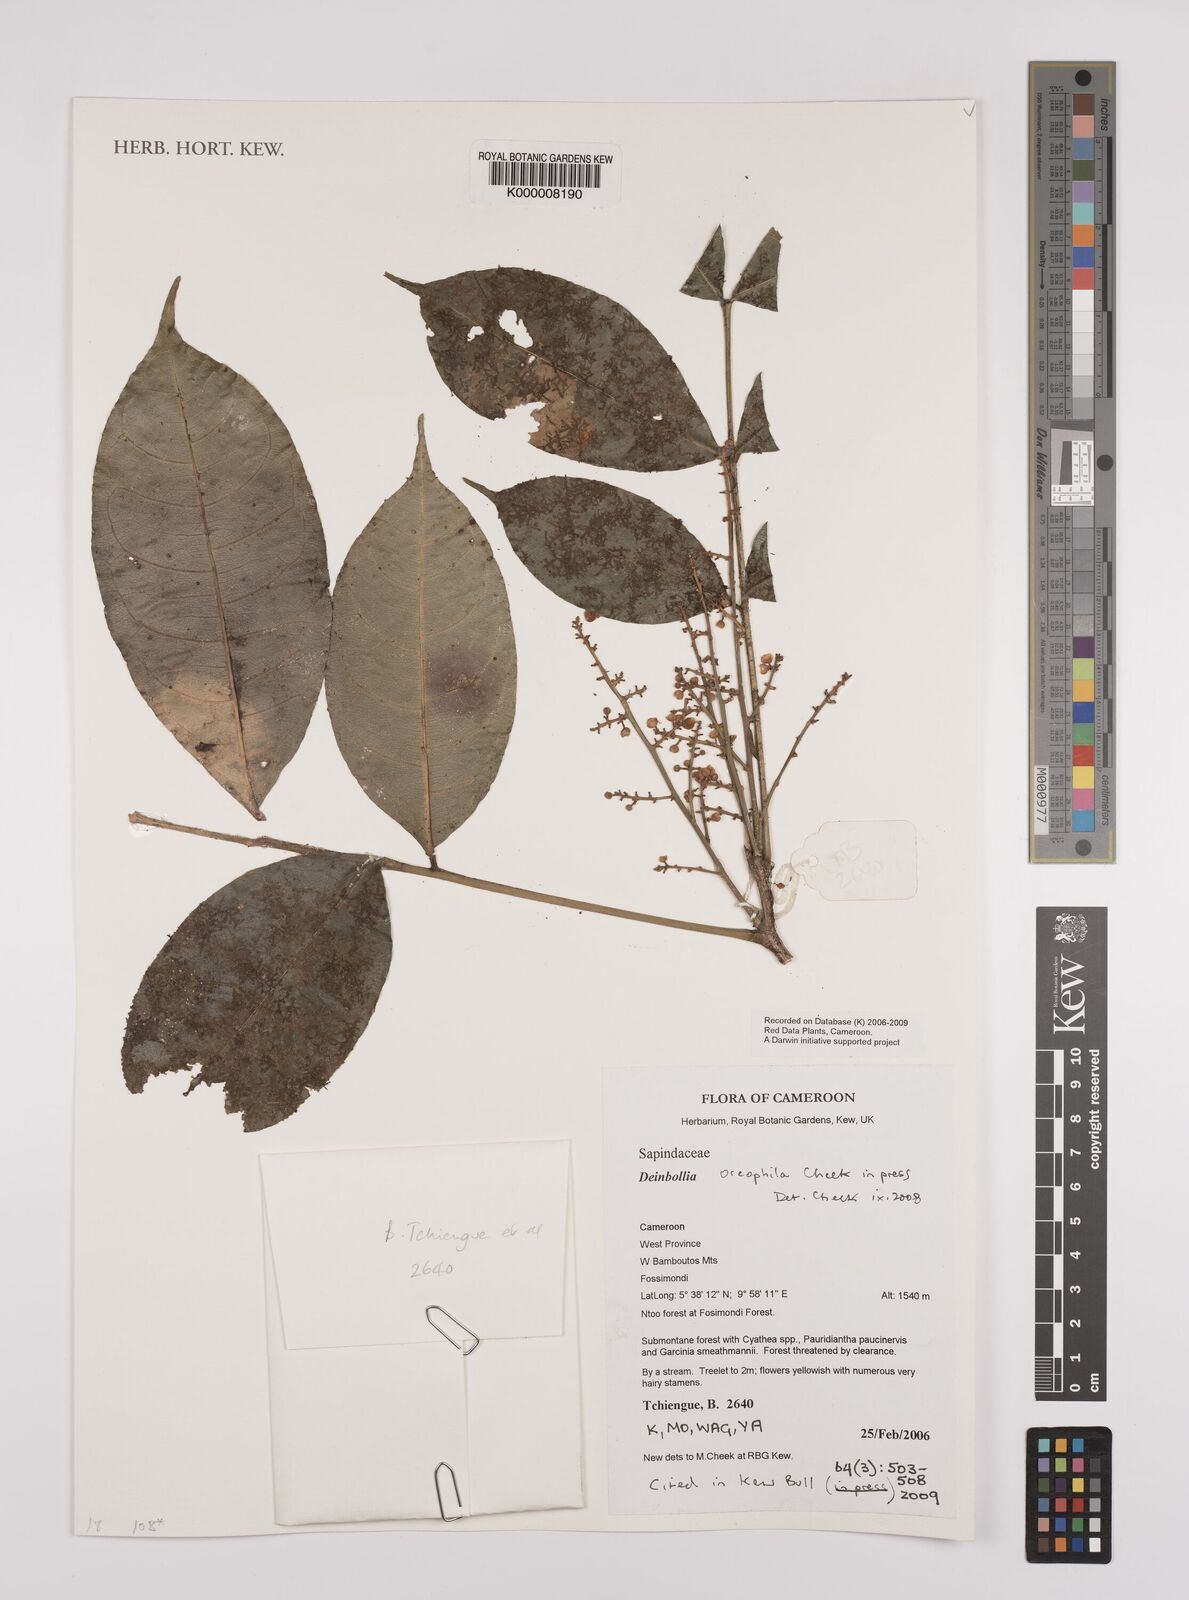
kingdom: Plantae
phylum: Tracheophyta
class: Magnoliopsida
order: Sapindales
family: Sapindaceae
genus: Deinbollia
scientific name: Deinbollia oreophila
